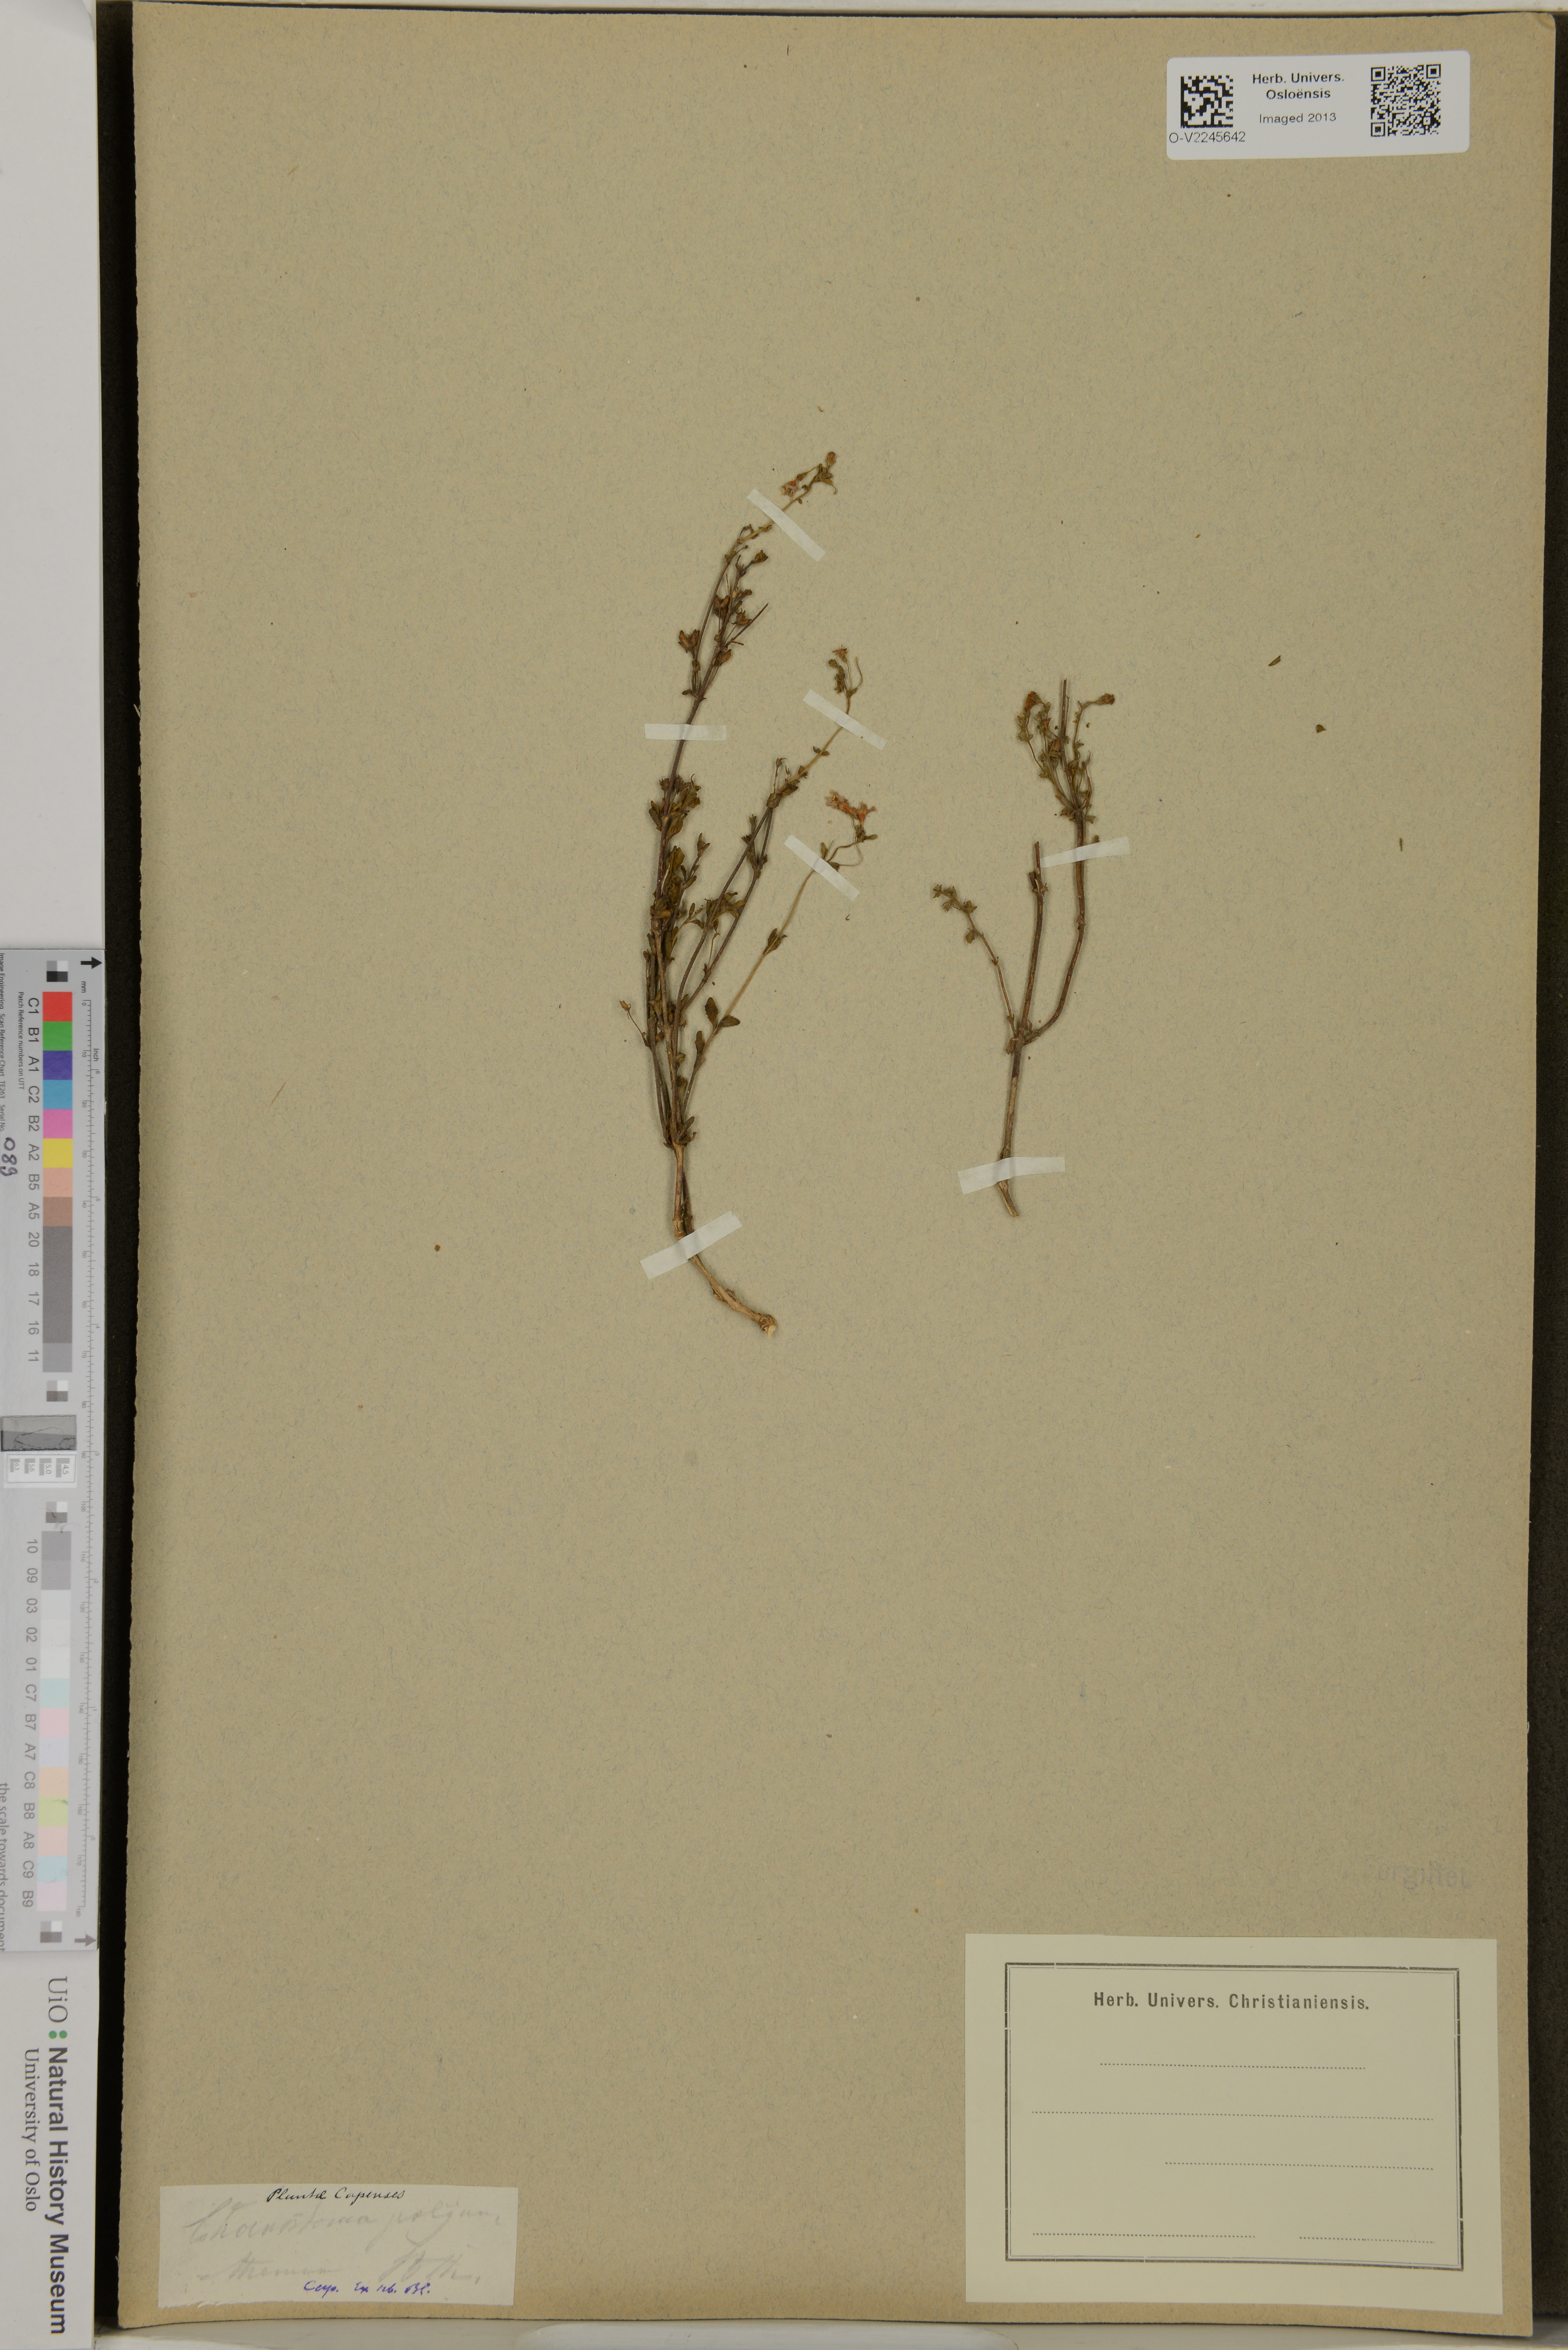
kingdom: Plantae
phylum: Tracheophyta
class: Magnoliopsida
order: Lamiales
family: Scrophulariaceae
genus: Chaenostoma
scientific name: Chaenostoma polyanthum
